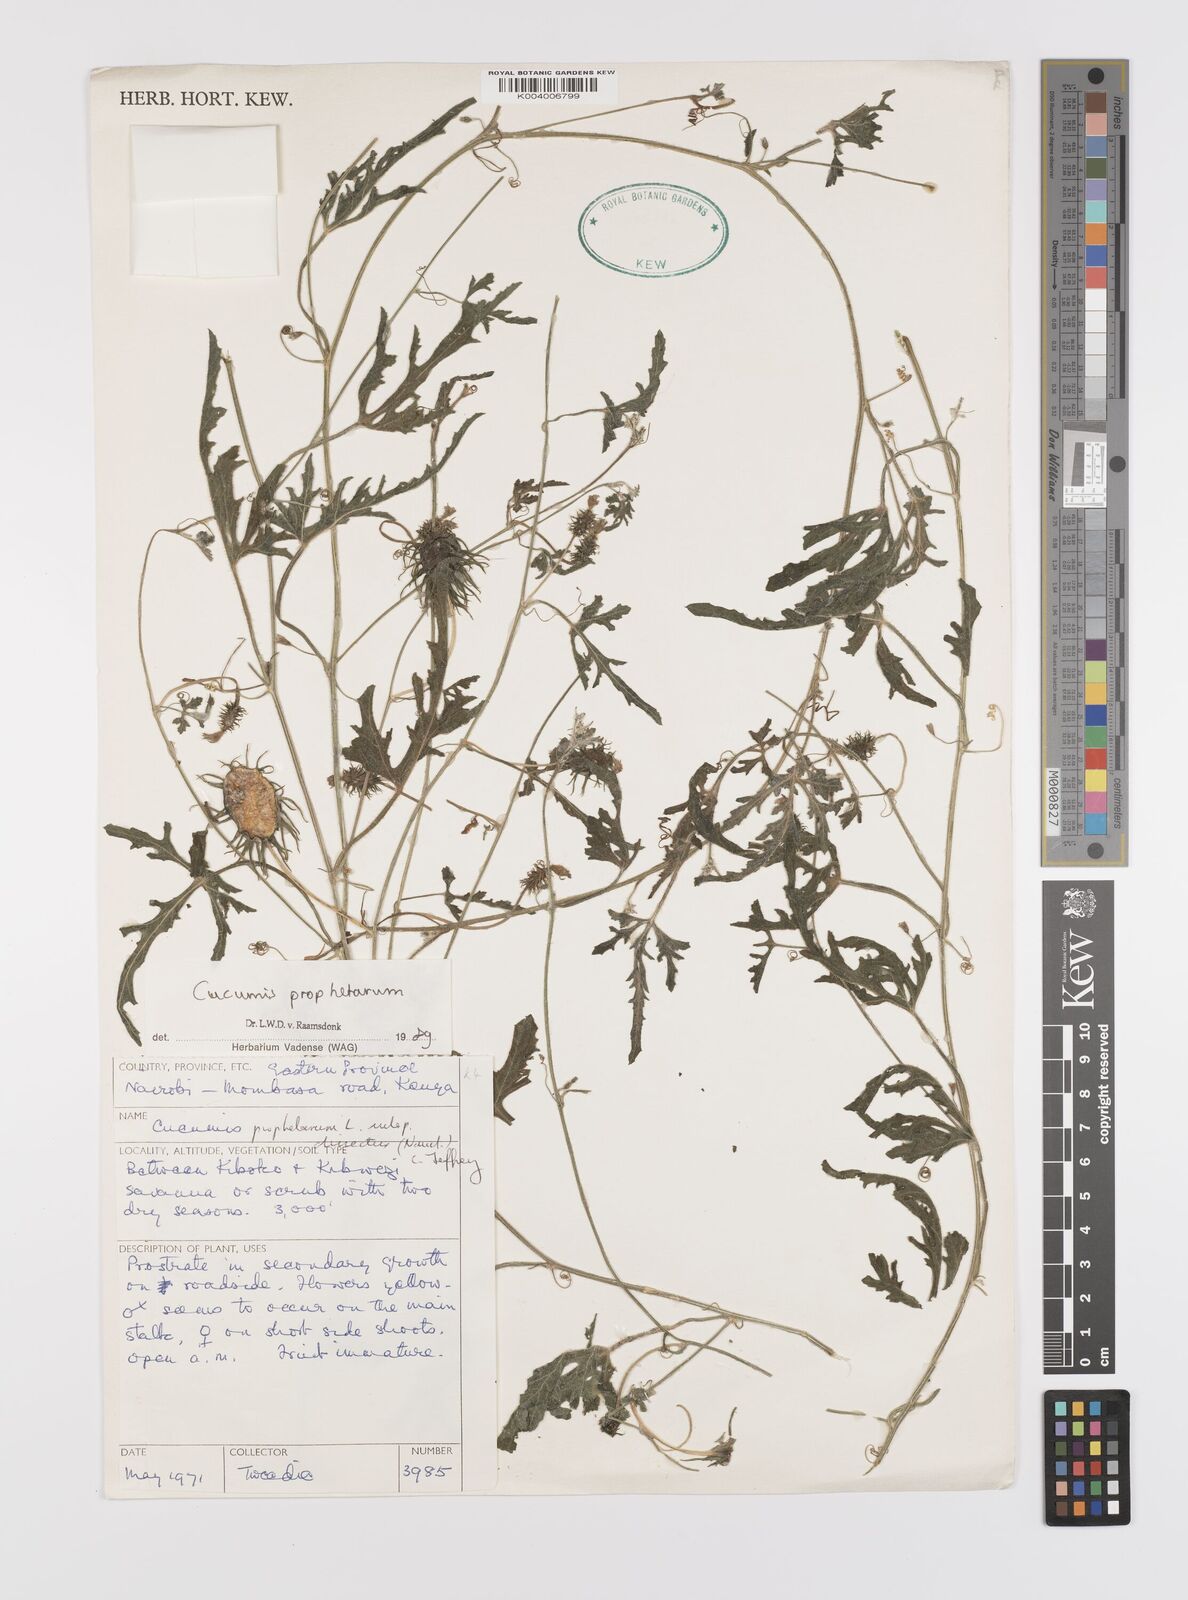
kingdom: Plantae
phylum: Tracheophyta
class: Magnoliopsida
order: Cucurbitales
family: Cucurbitaceae
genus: Cucumis
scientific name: Cucumis insignis
